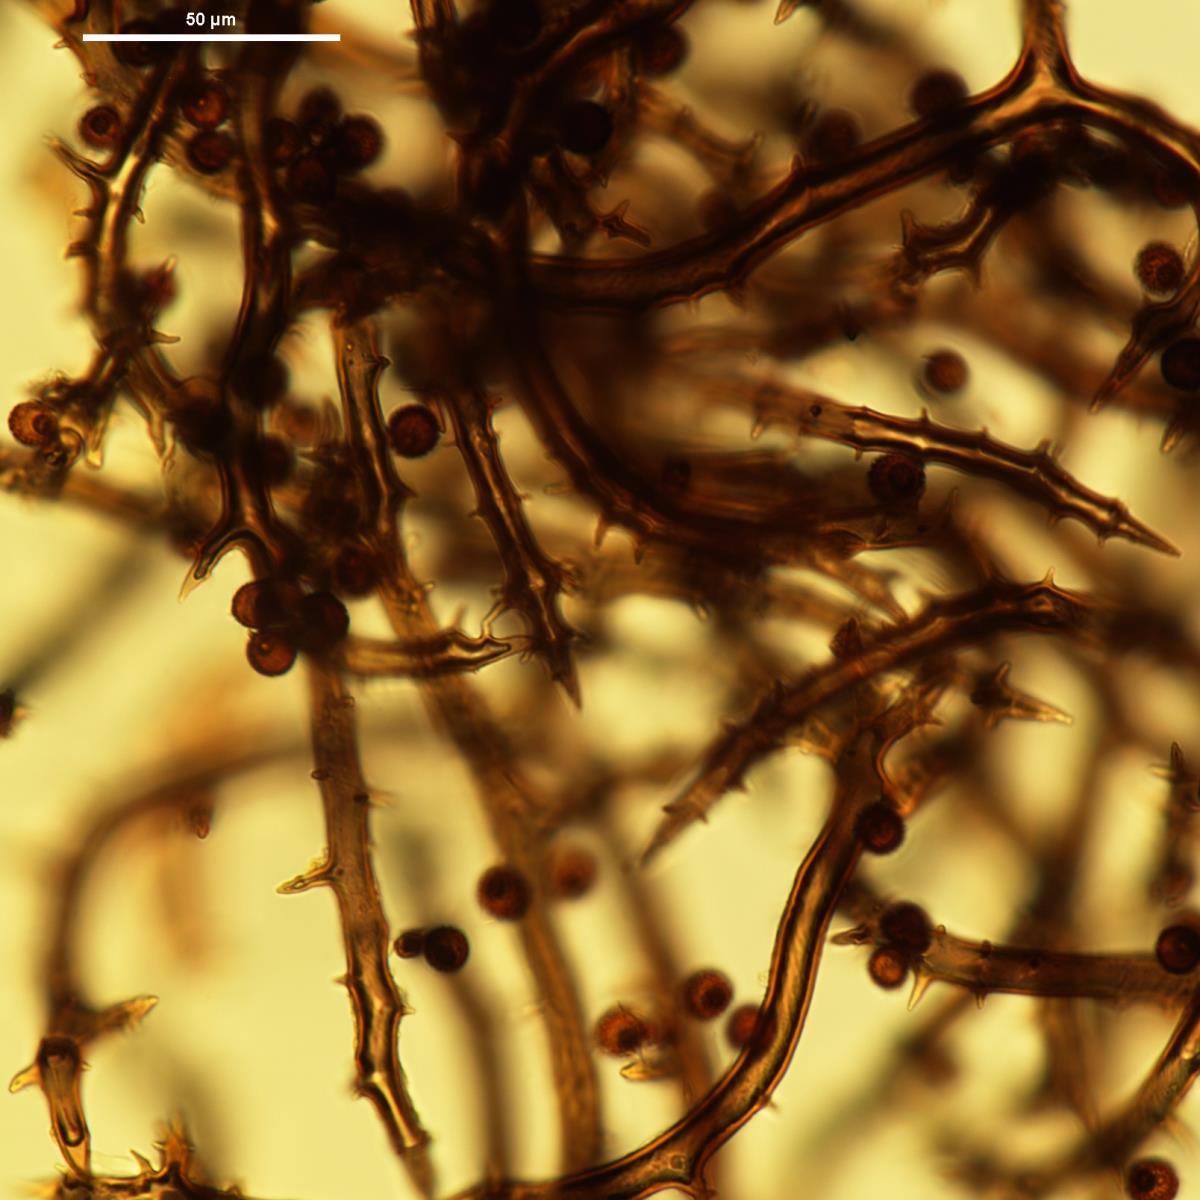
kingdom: Fungi
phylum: Basidiomycota
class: Agaricomycetes
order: Agaricales
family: Agaricaceae
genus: Mycenastrum
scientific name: Mycenastrum corium
